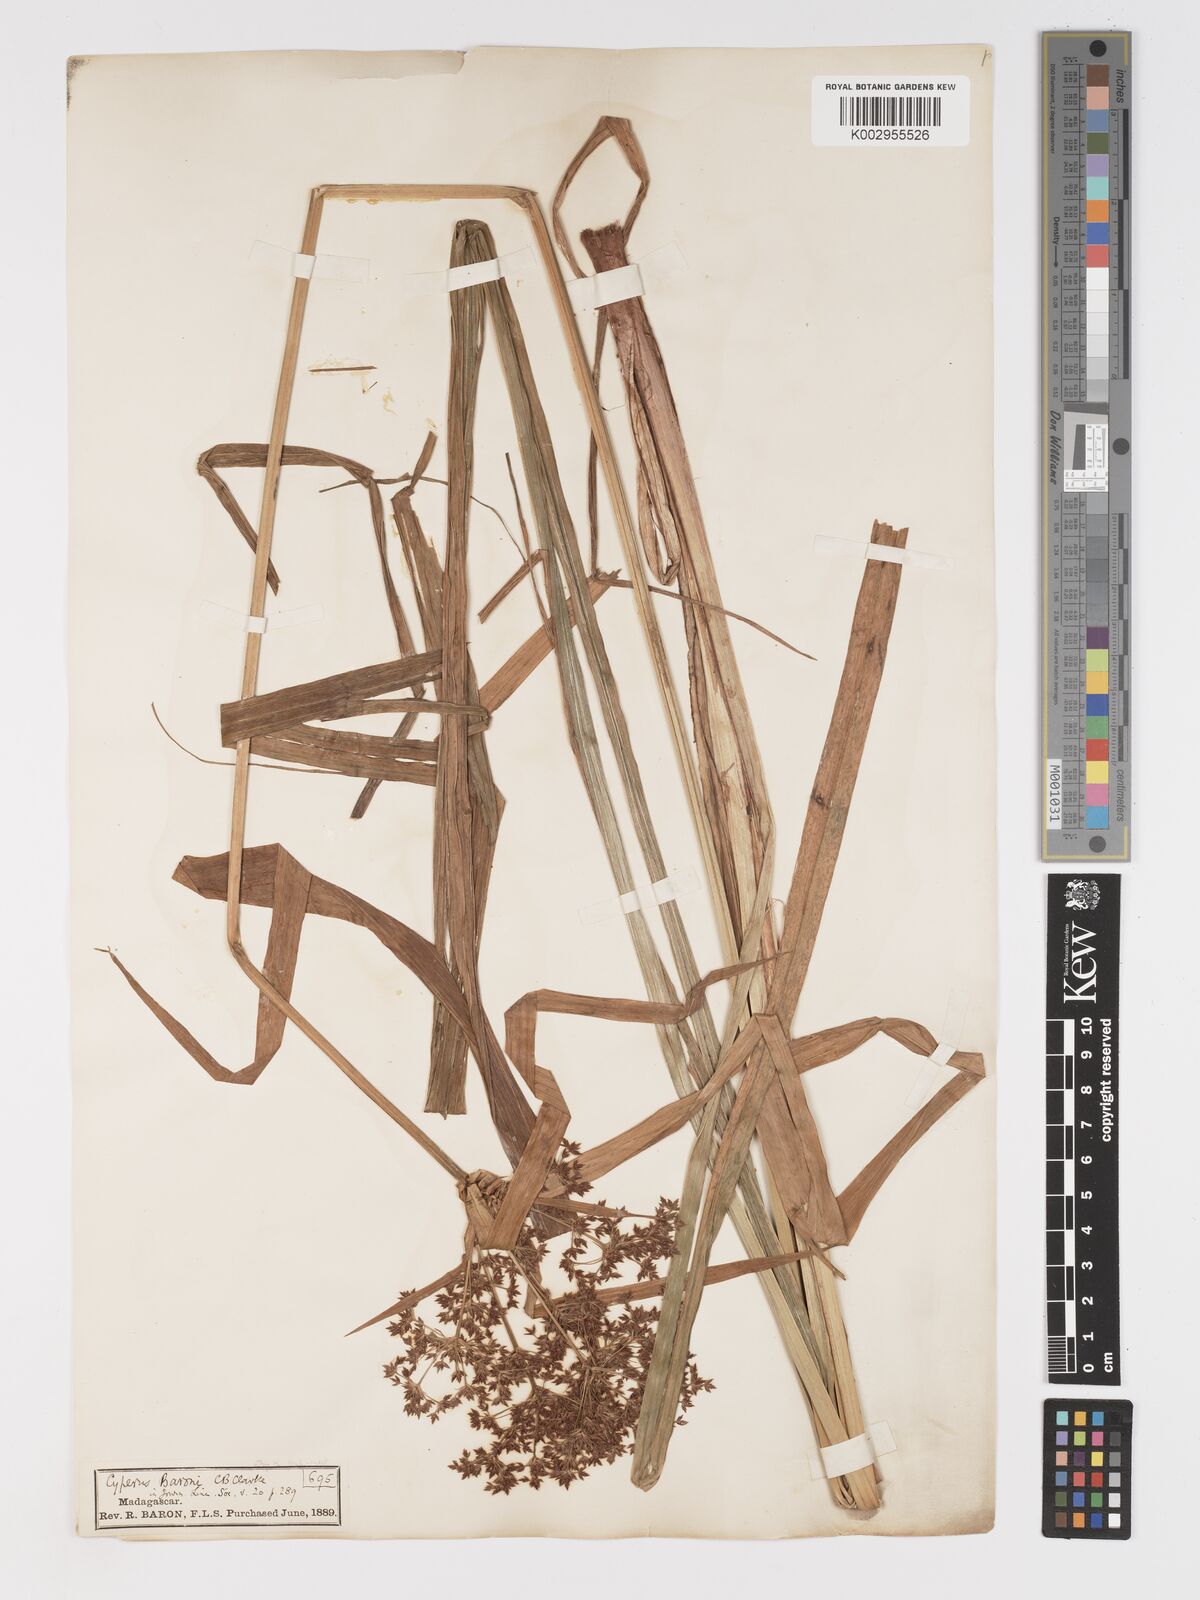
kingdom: Plantae
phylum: Tracheophyta
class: Liliopsida
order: Poales
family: Cyperaceae
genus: Cyperus
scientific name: Cyperus baronii
